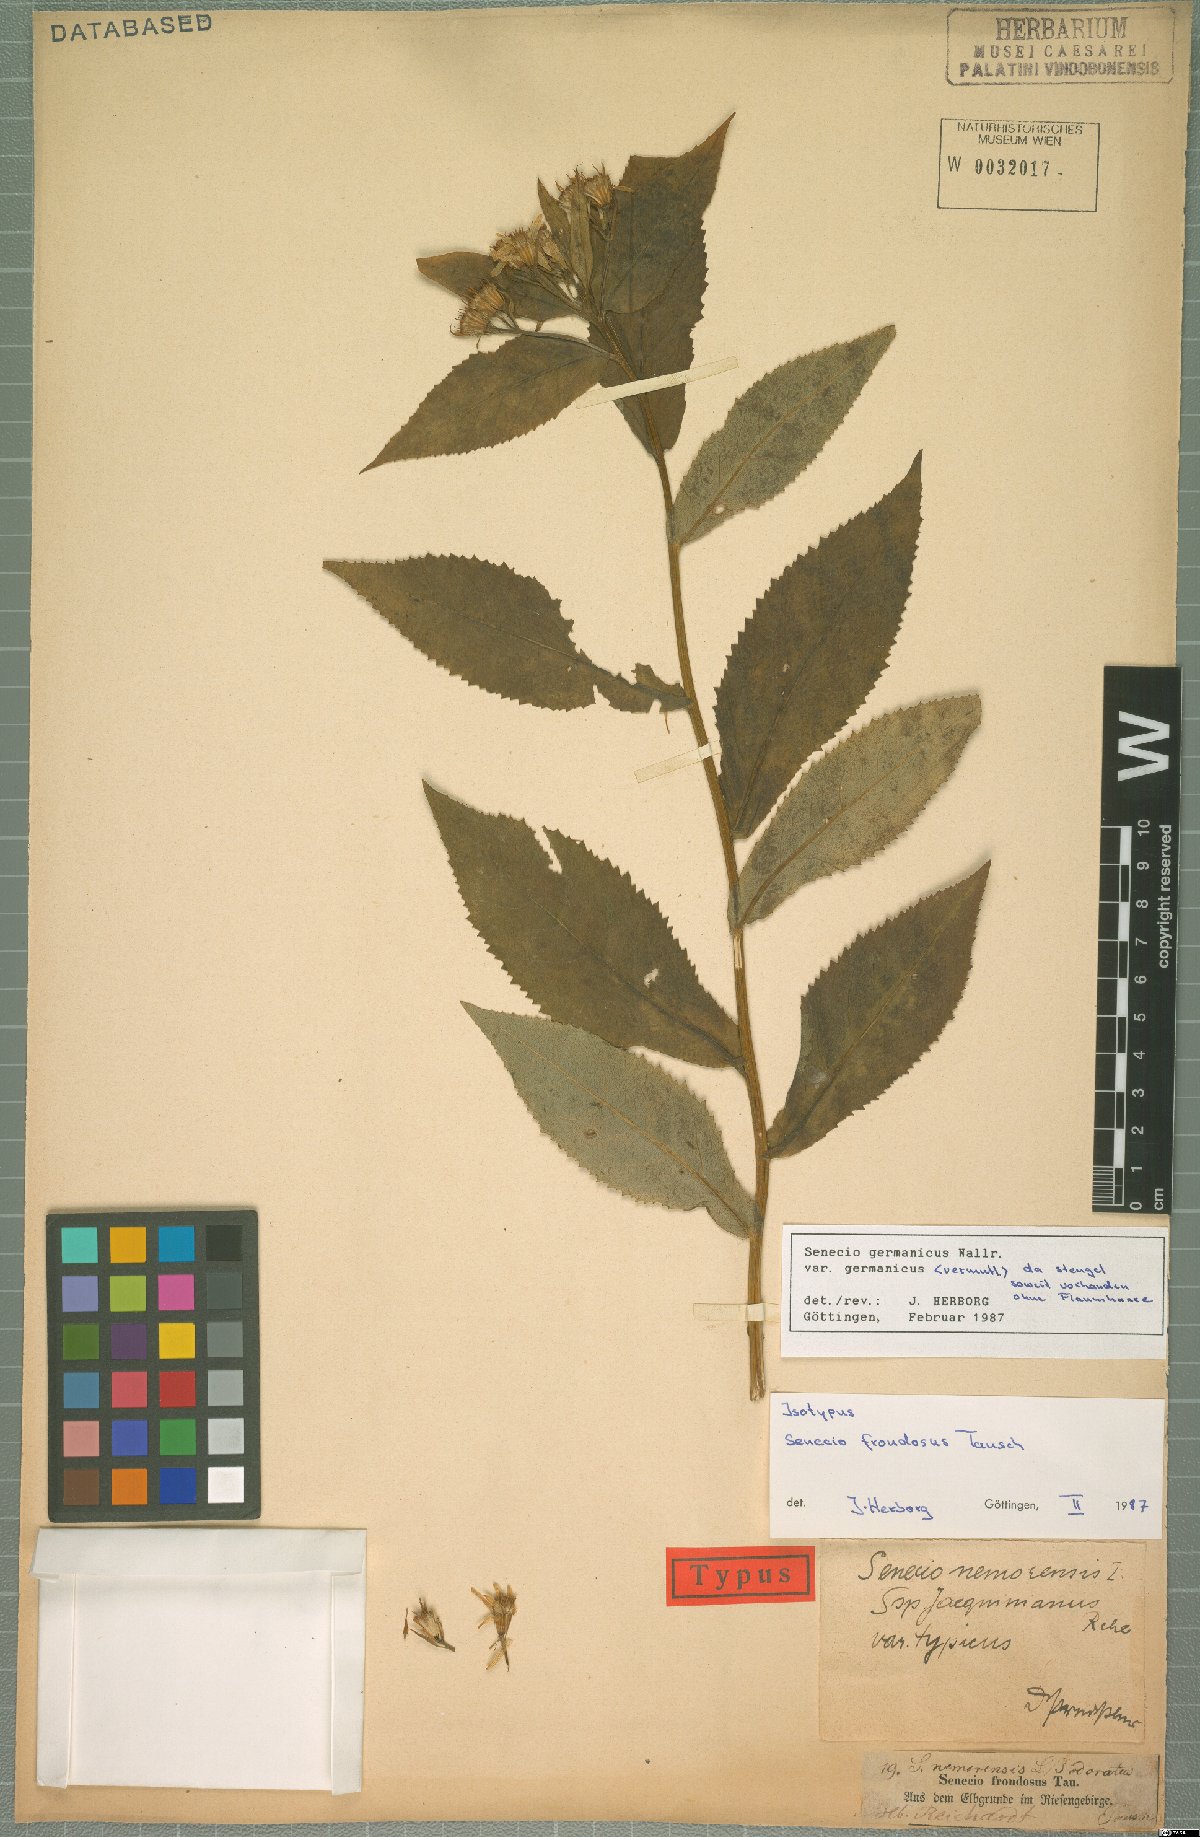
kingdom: Plantae
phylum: Tracheophyta
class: Magnoliopsida
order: Asterales
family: Asteraceae
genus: Senecio
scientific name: Senecio germanicus
